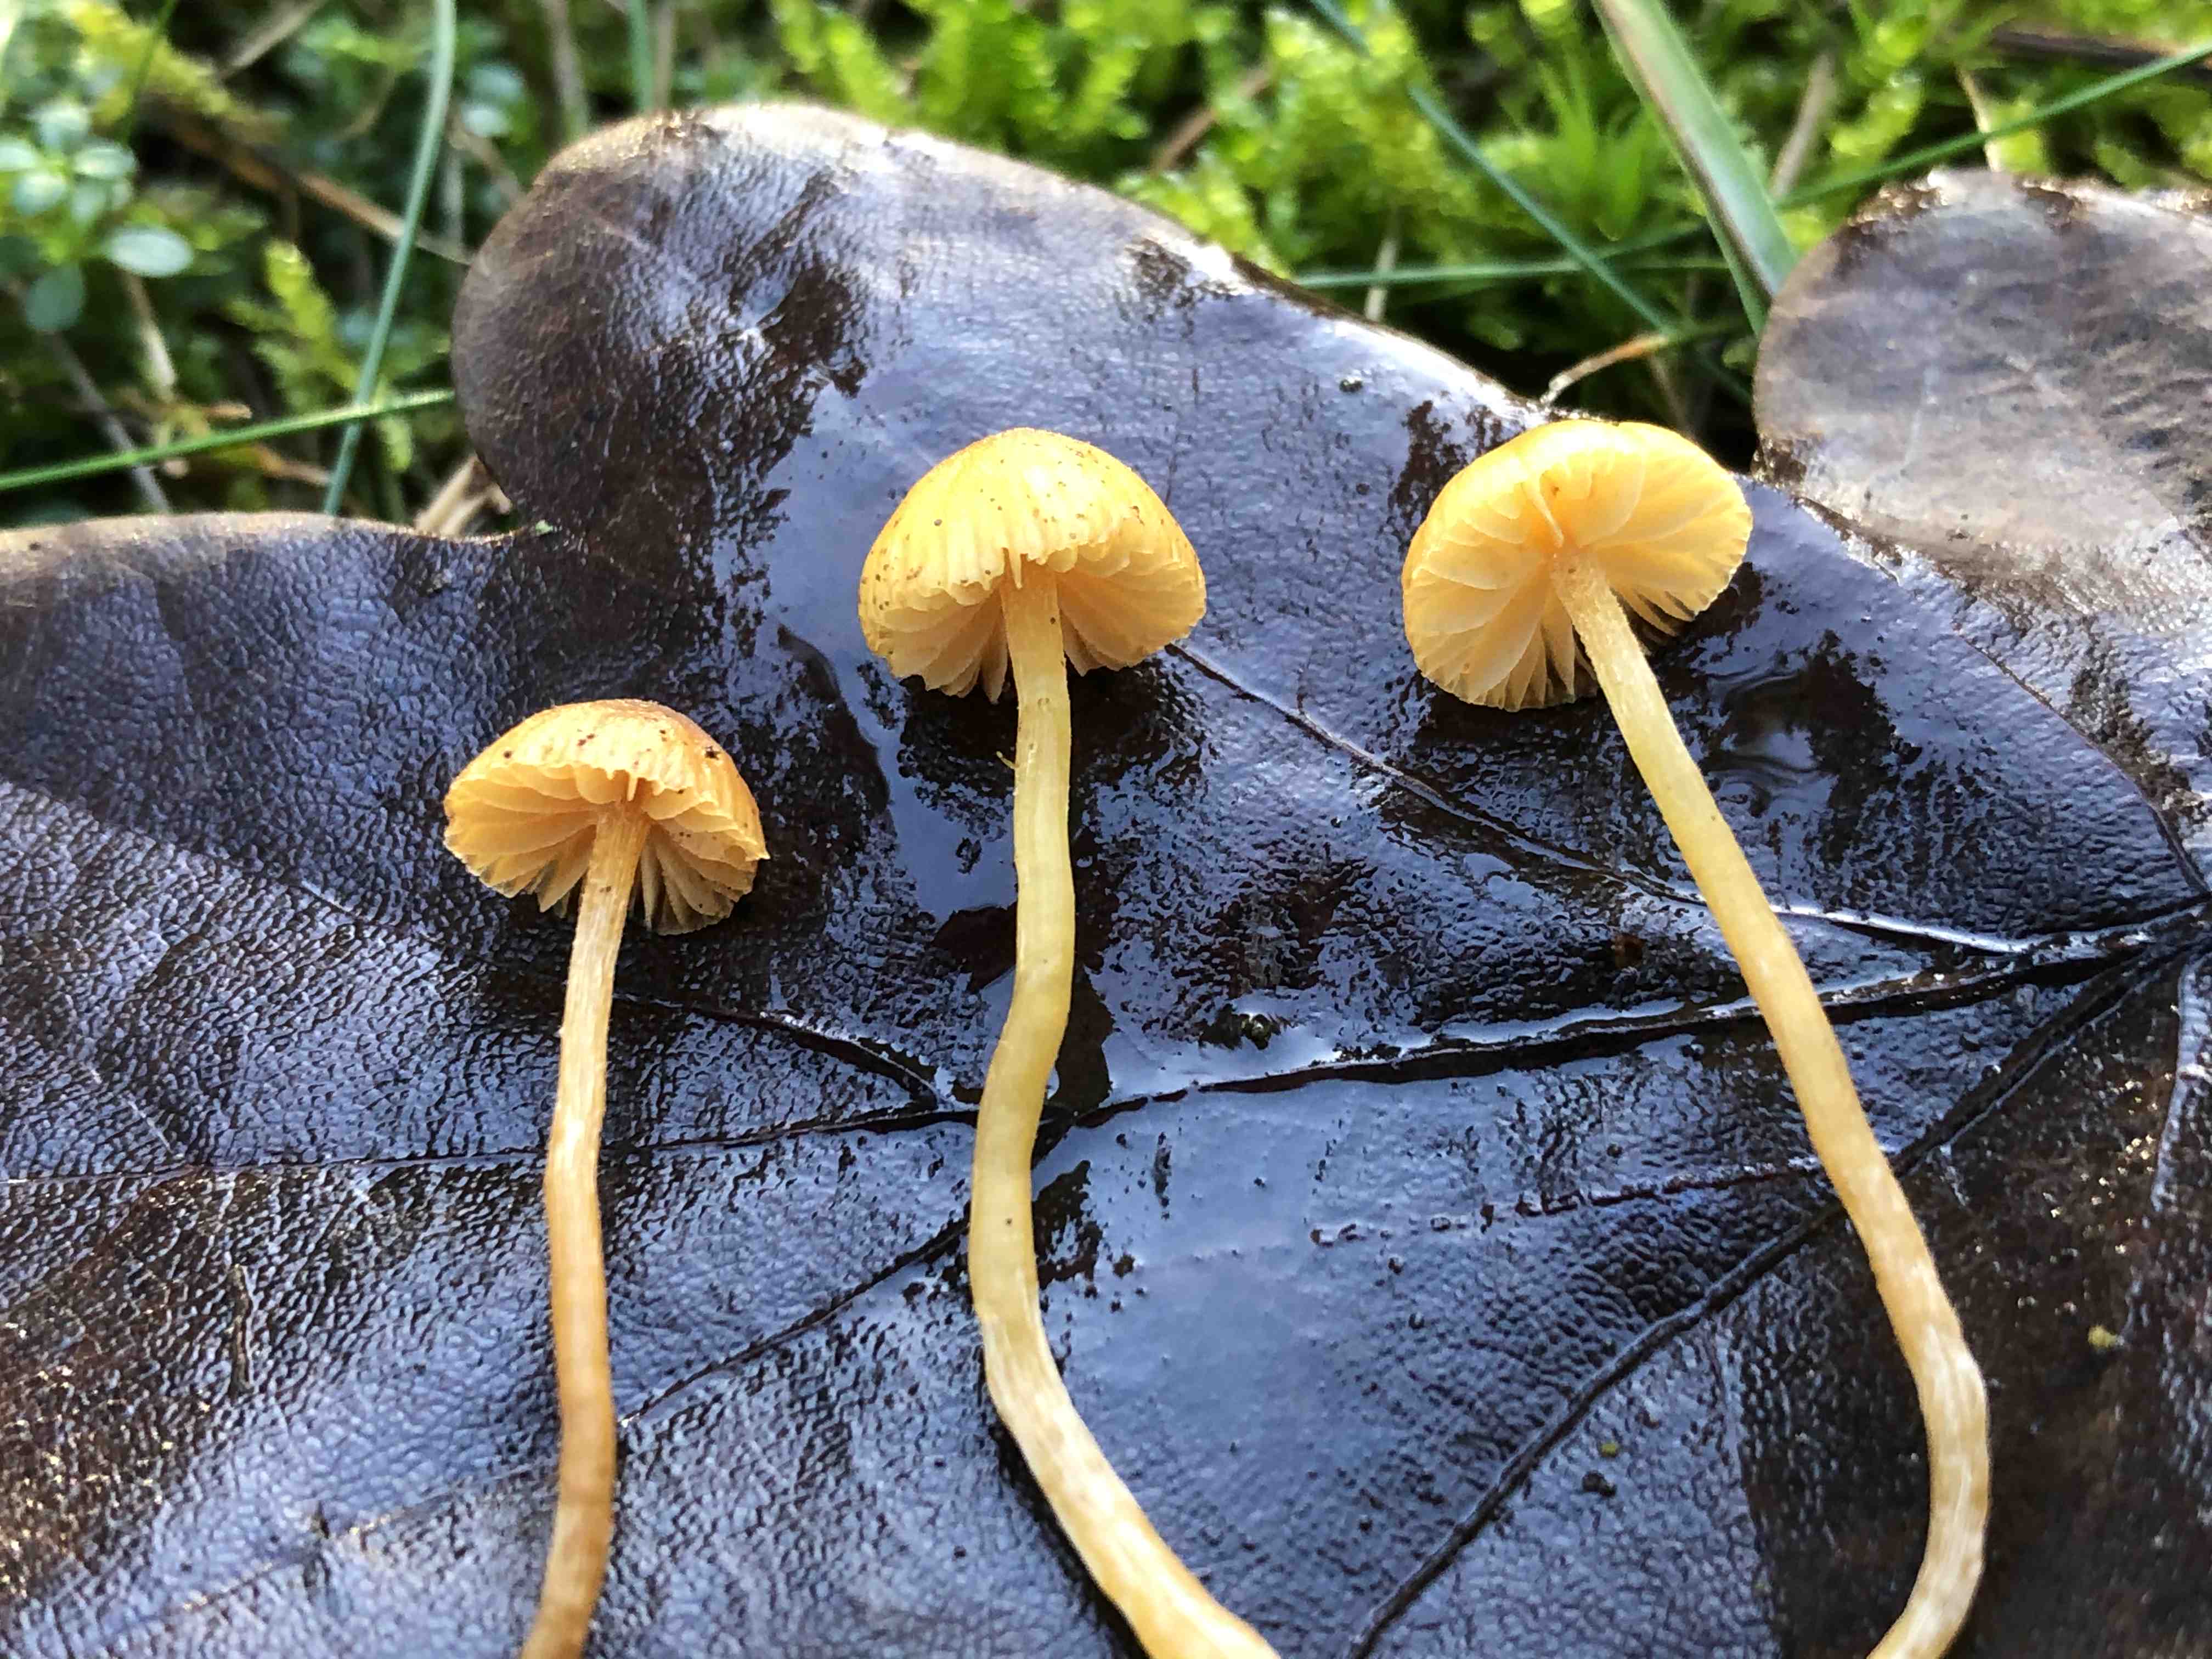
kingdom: Fungi
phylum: Basidiomycota
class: Agaricomycetes
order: Agaricales
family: Hymenogastraceae
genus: Galerina
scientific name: Galerina
